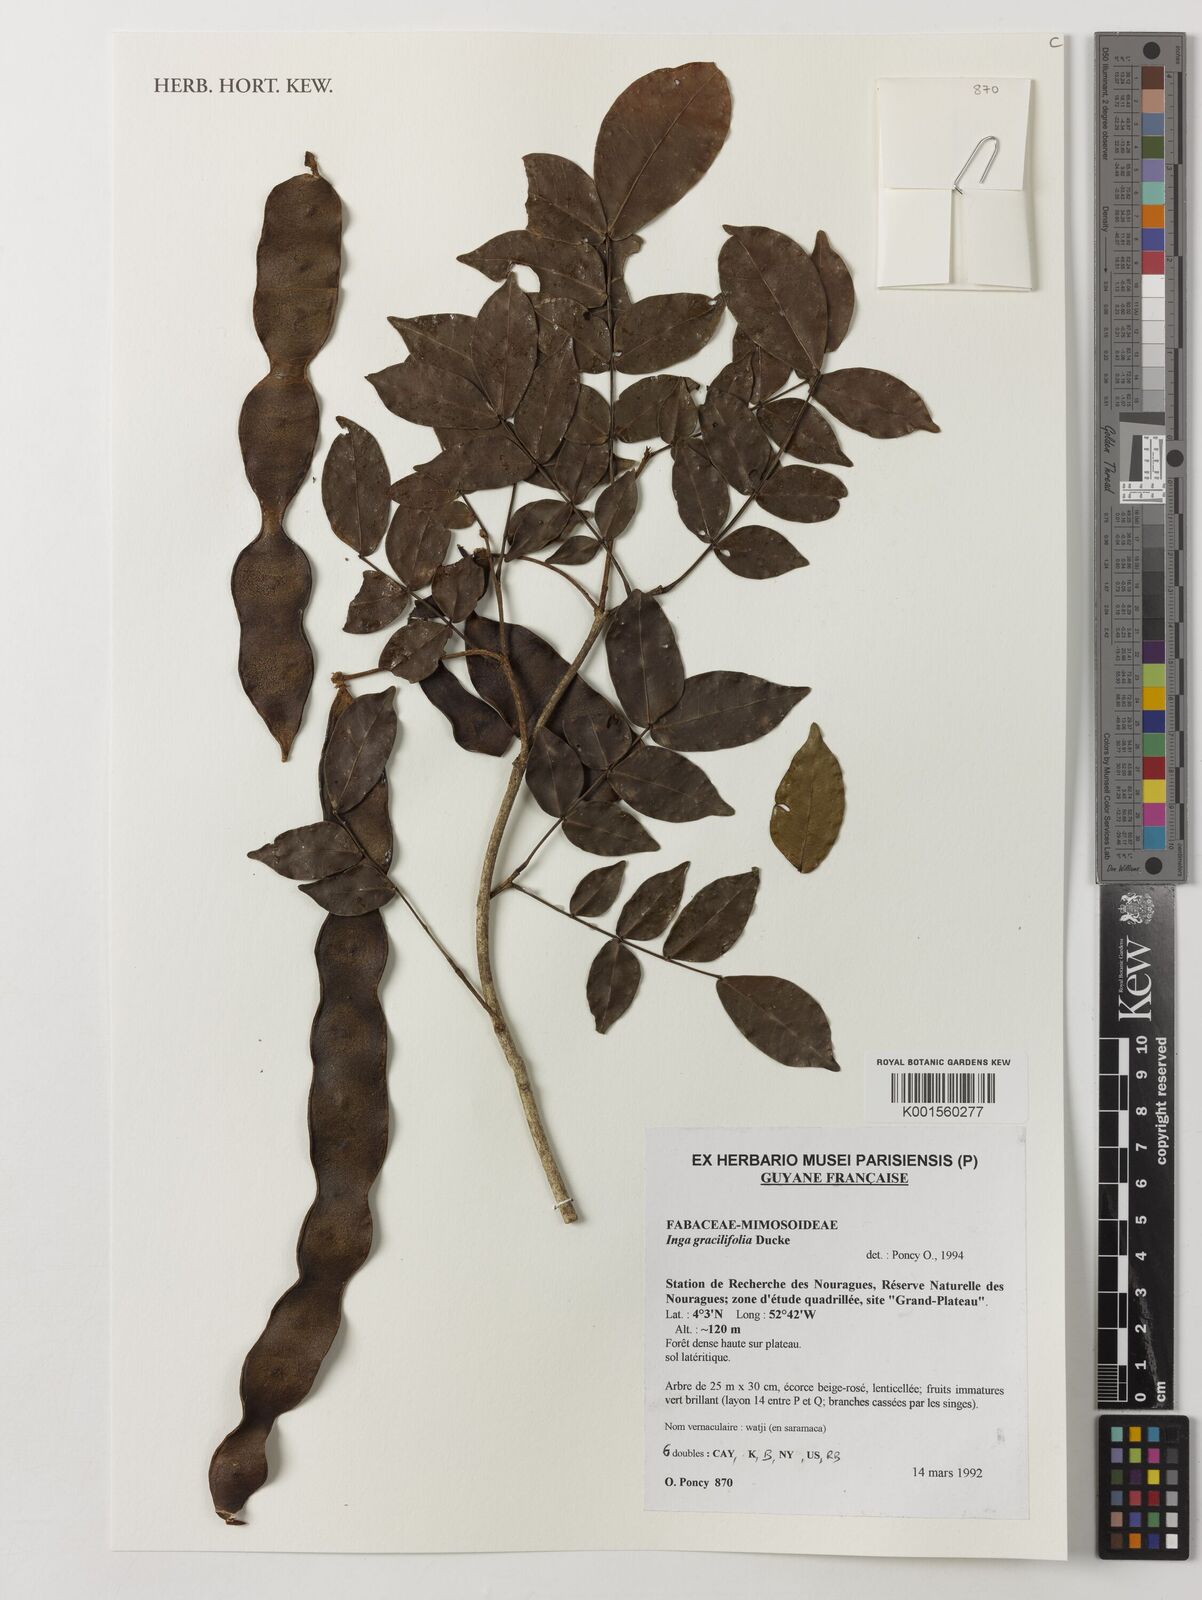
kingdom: Plantae
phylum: Tracheophyta
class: Magnoliopsida
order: Fabales
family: Fabaceae
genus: Inga
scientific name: Inga graciliflora
